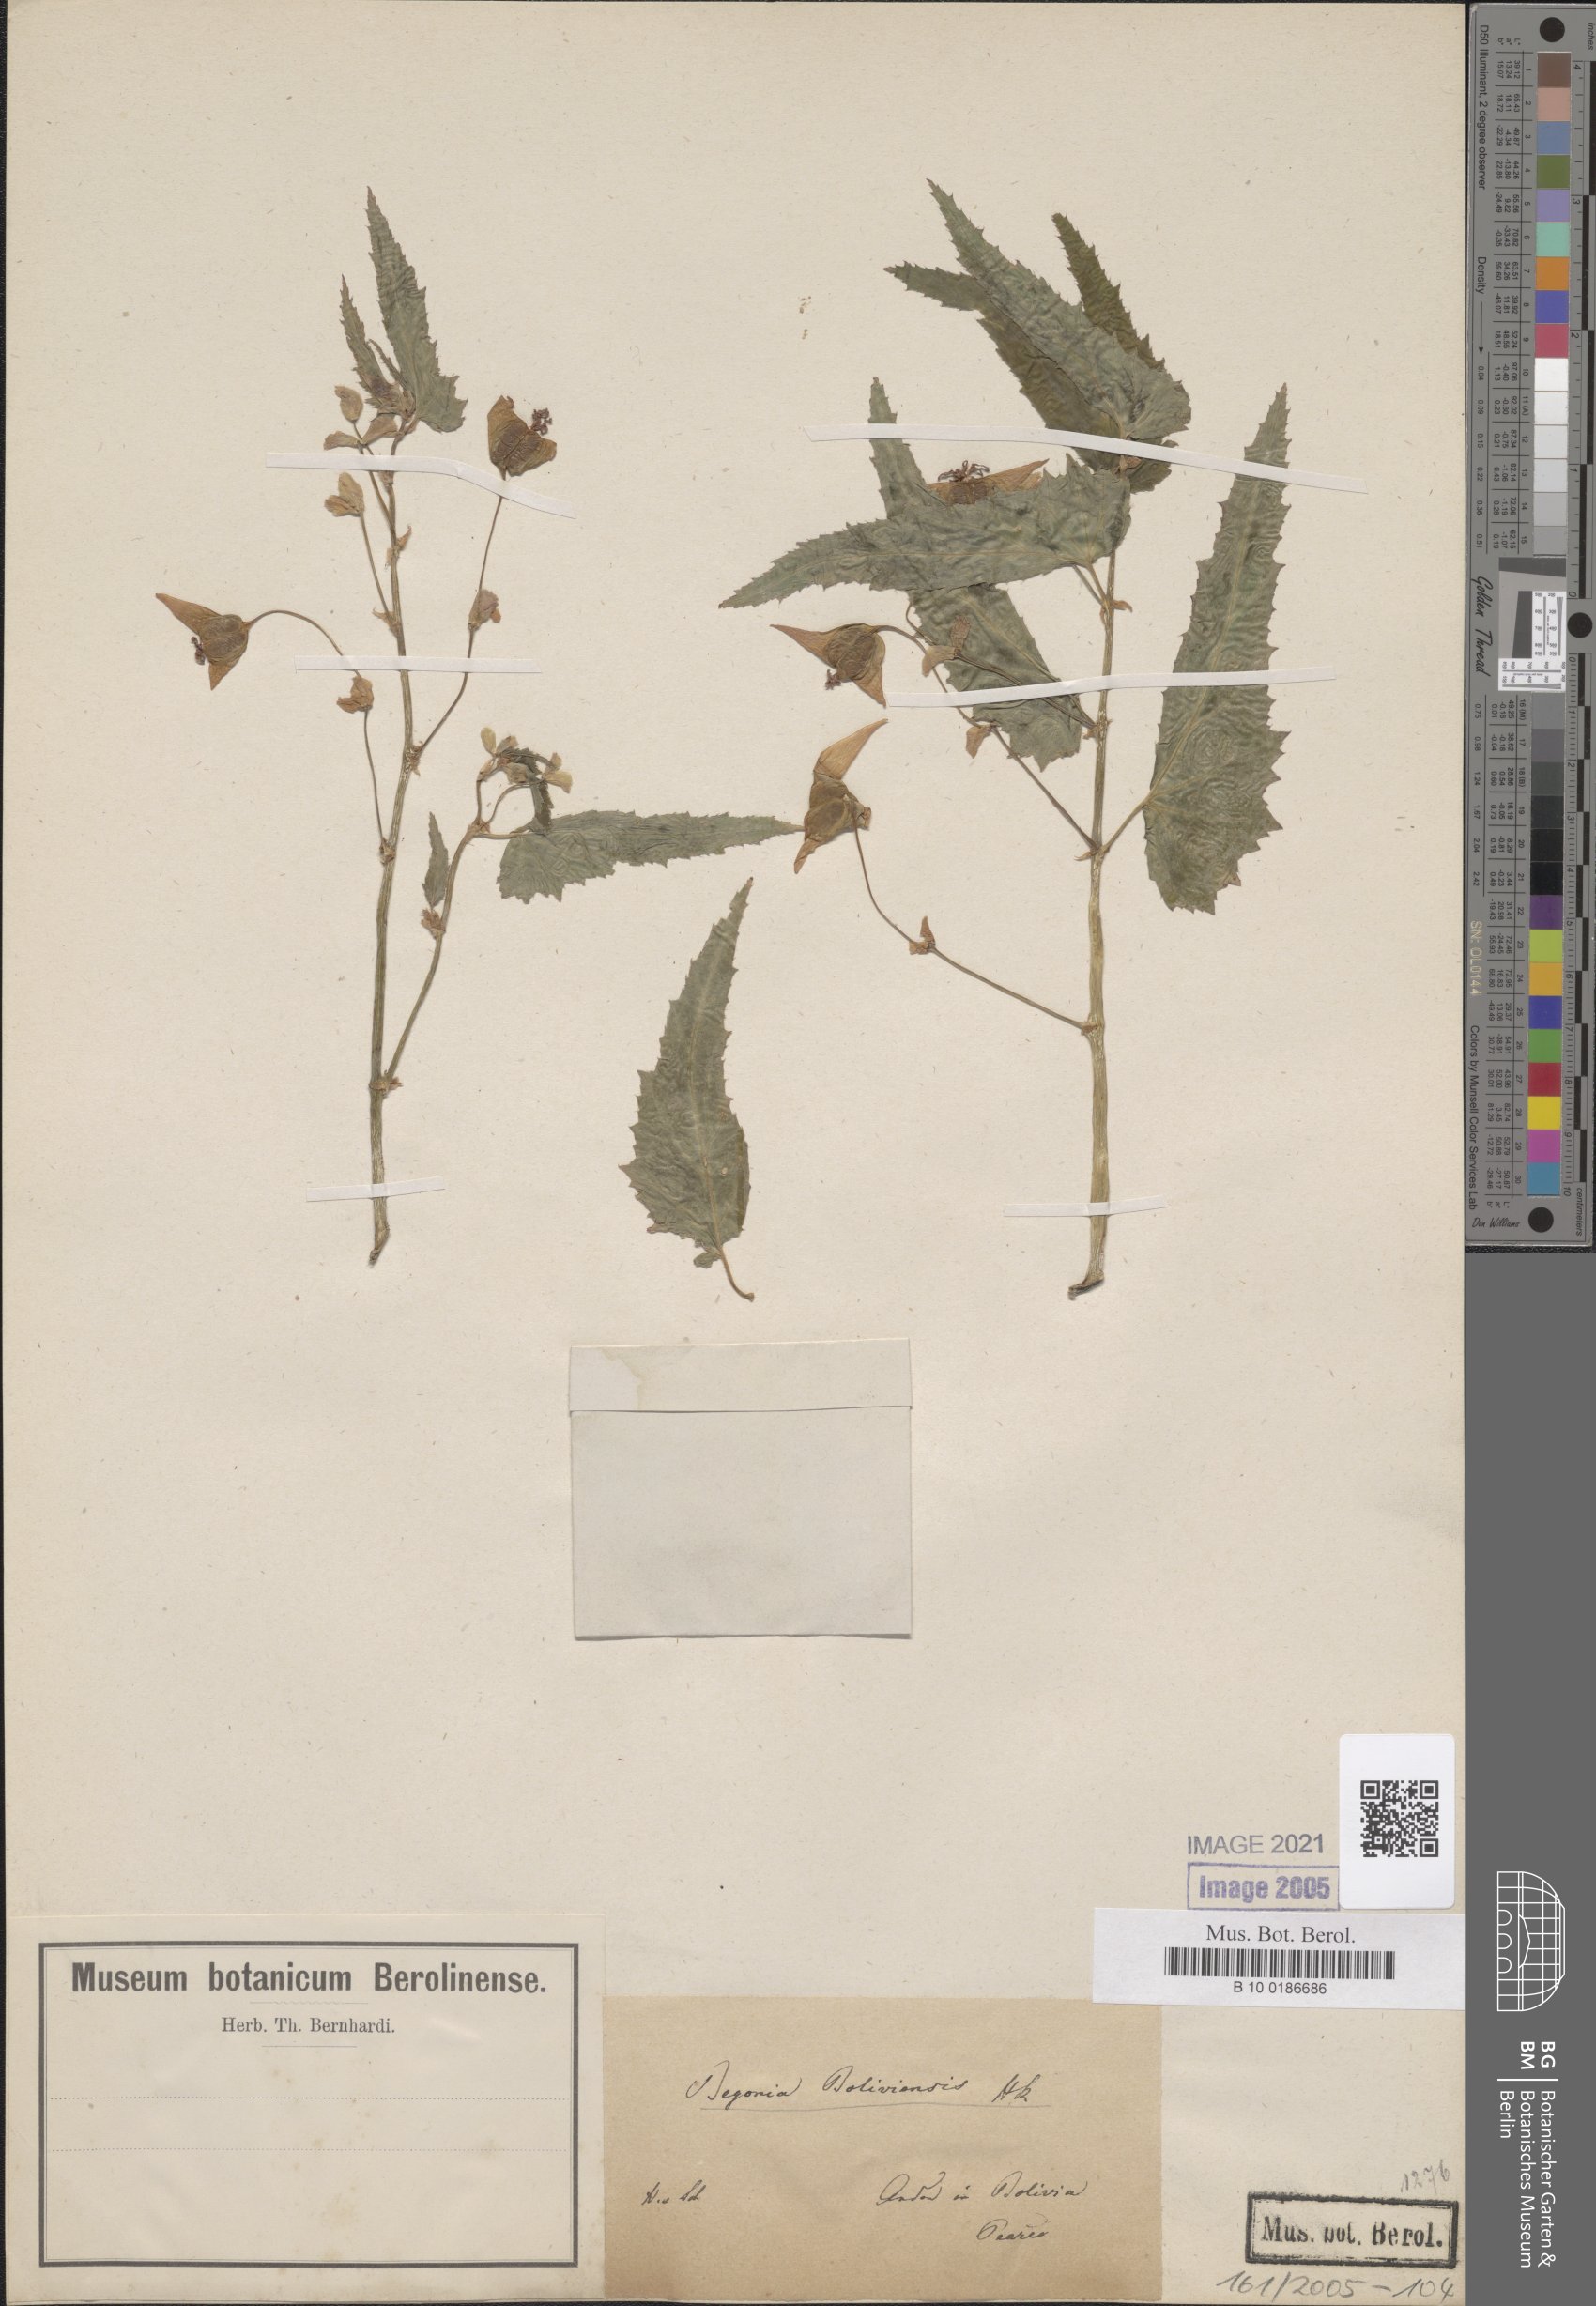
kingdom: Plantae
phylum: Tracheophyta
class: Magnoliopsida
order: Cucurbitales
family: Begoniaceae
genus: Begonia
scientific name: Begonia boliviensis
